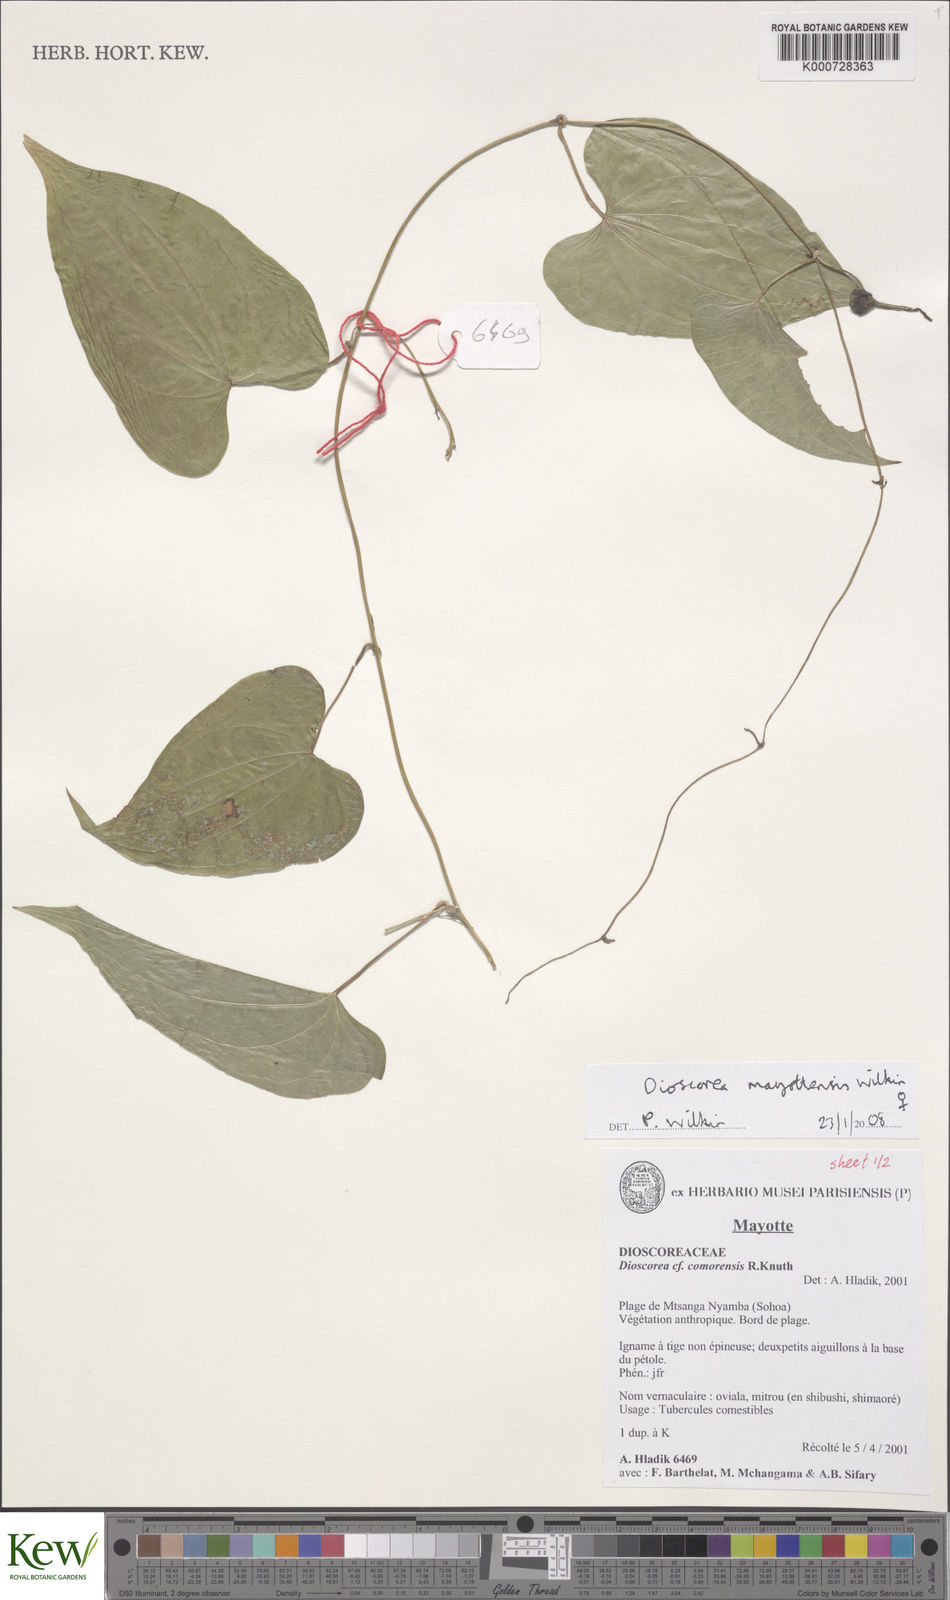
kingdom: Plantae
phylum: Tracheophyta
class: Liliopsida
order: Dioscoreales
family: Dioscoreaceae
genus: Dioscorea
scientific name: Dioscorea mayottensis
